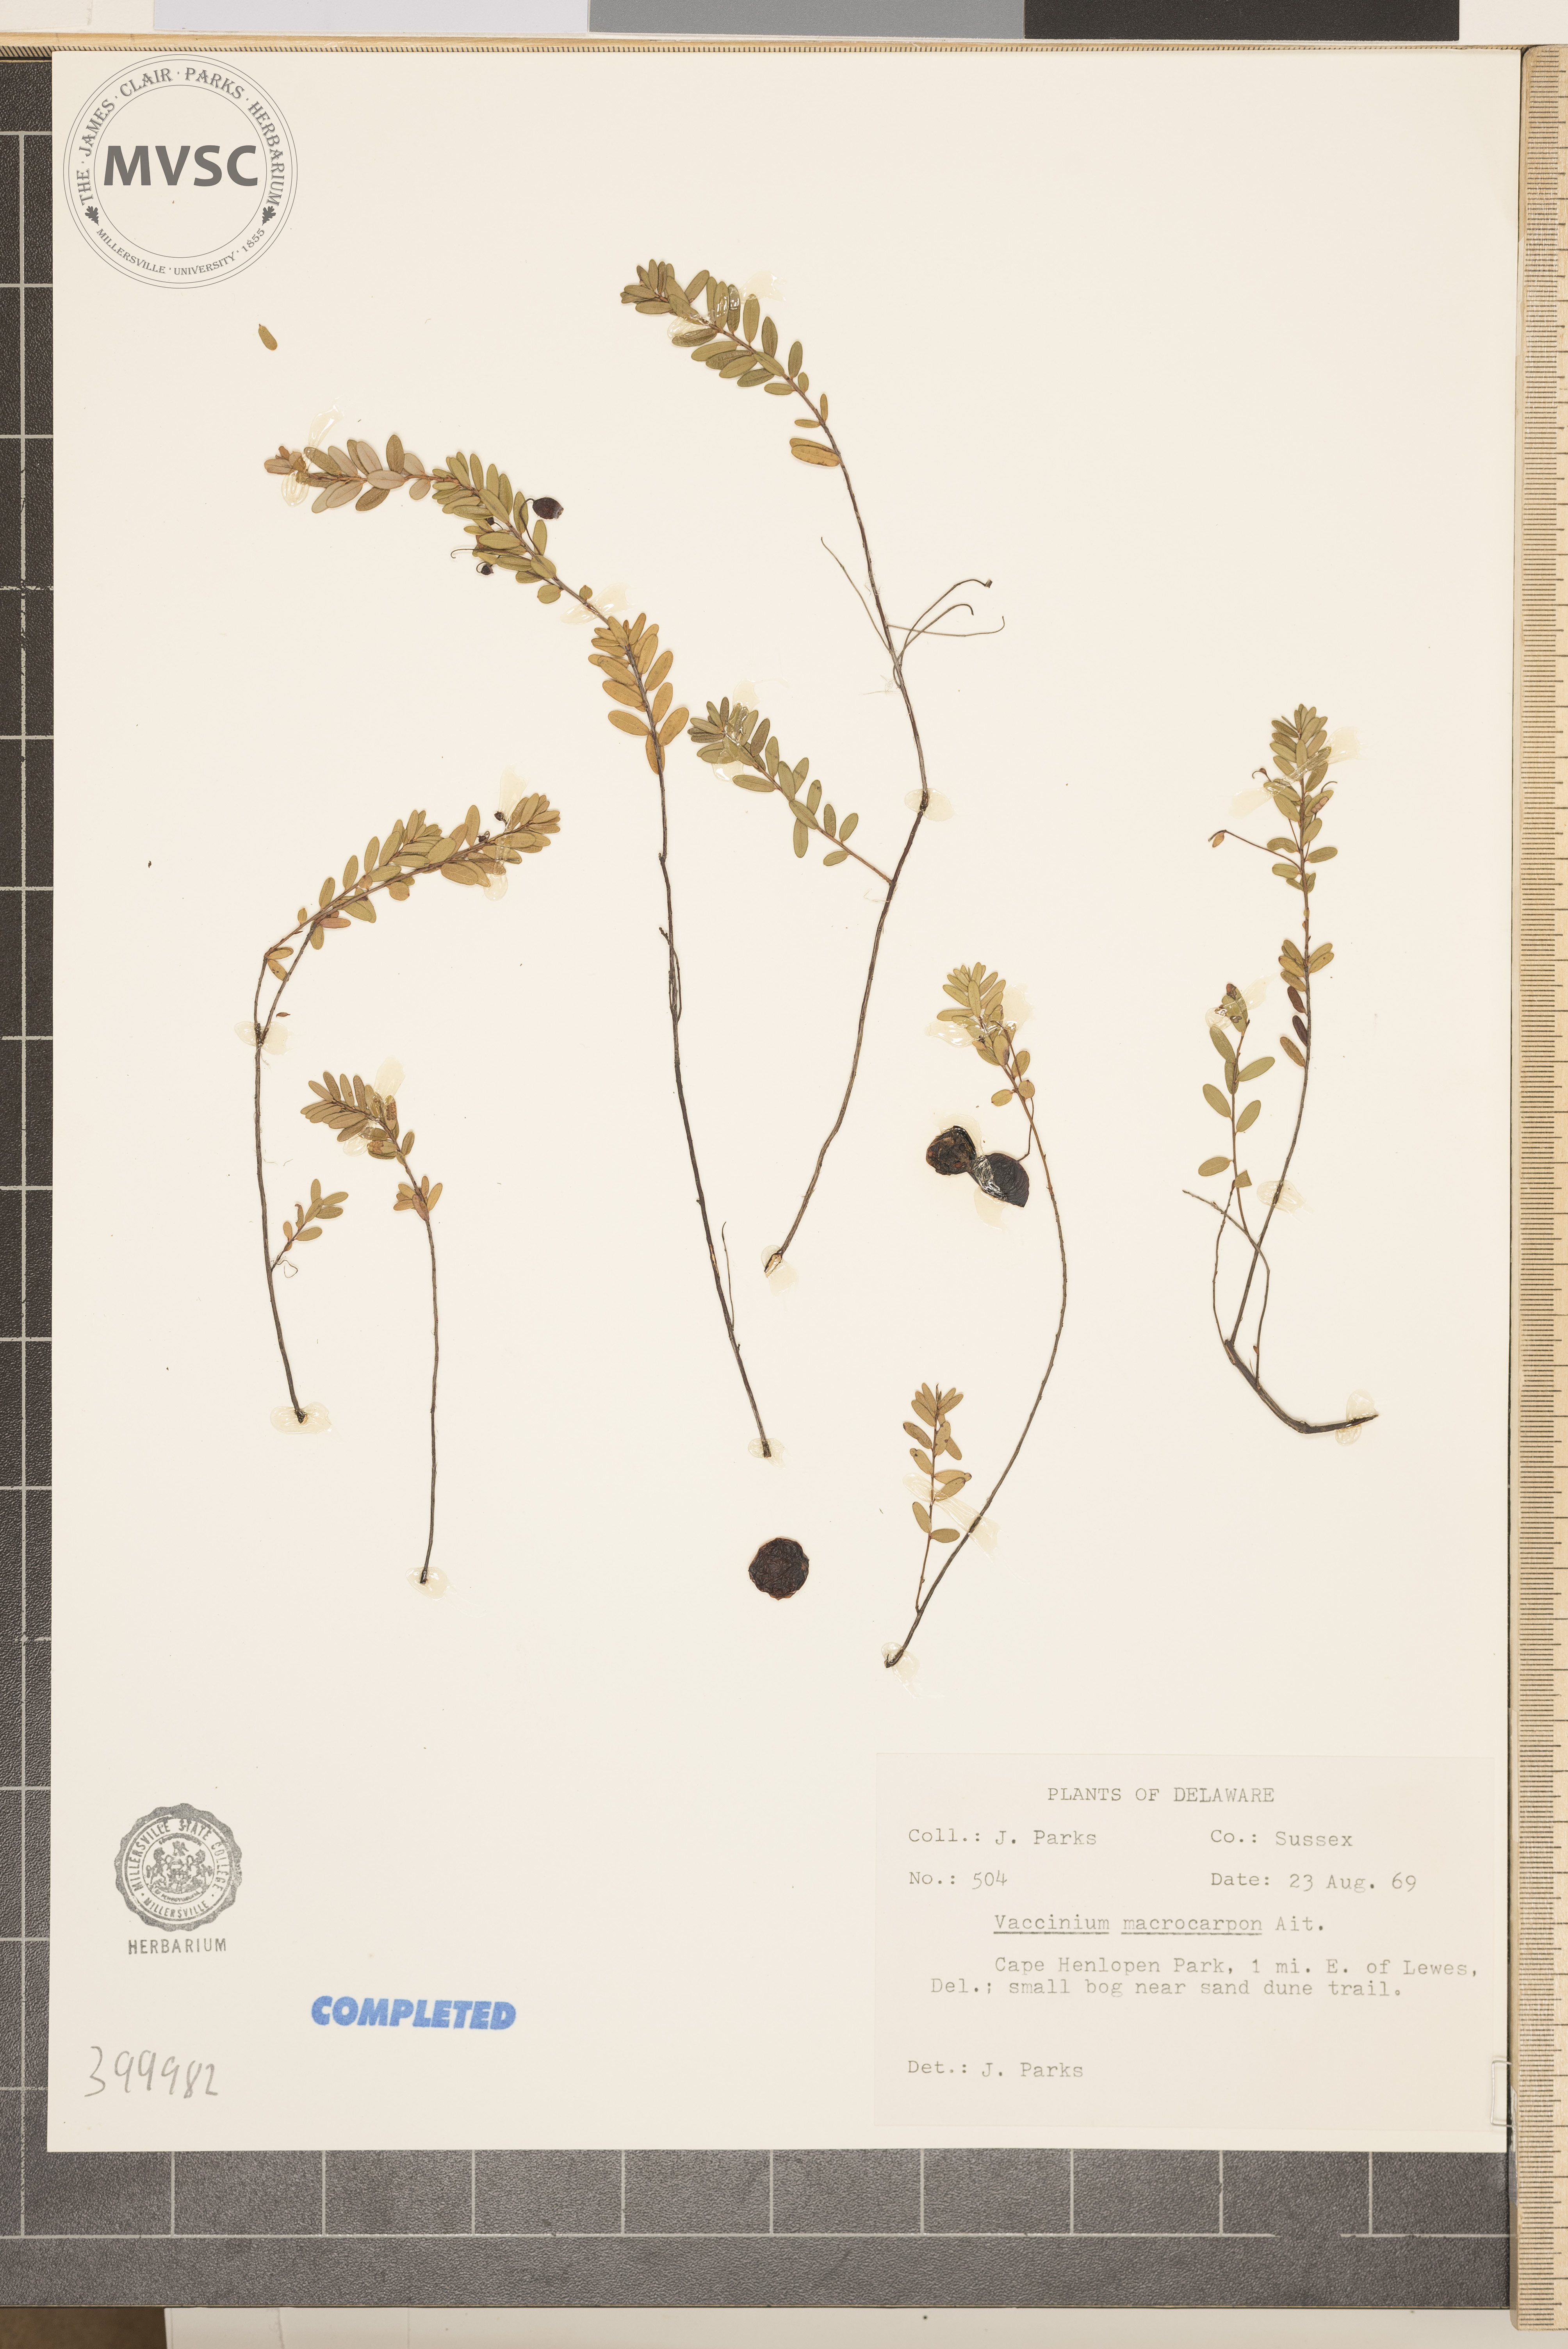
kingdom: Plantae
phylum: Tracheophyta
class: Magnoliopsida
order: Ericales
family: Ericaceae
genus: Vaccinium
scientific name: Vaccinium macrocarpon
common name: blueberry
